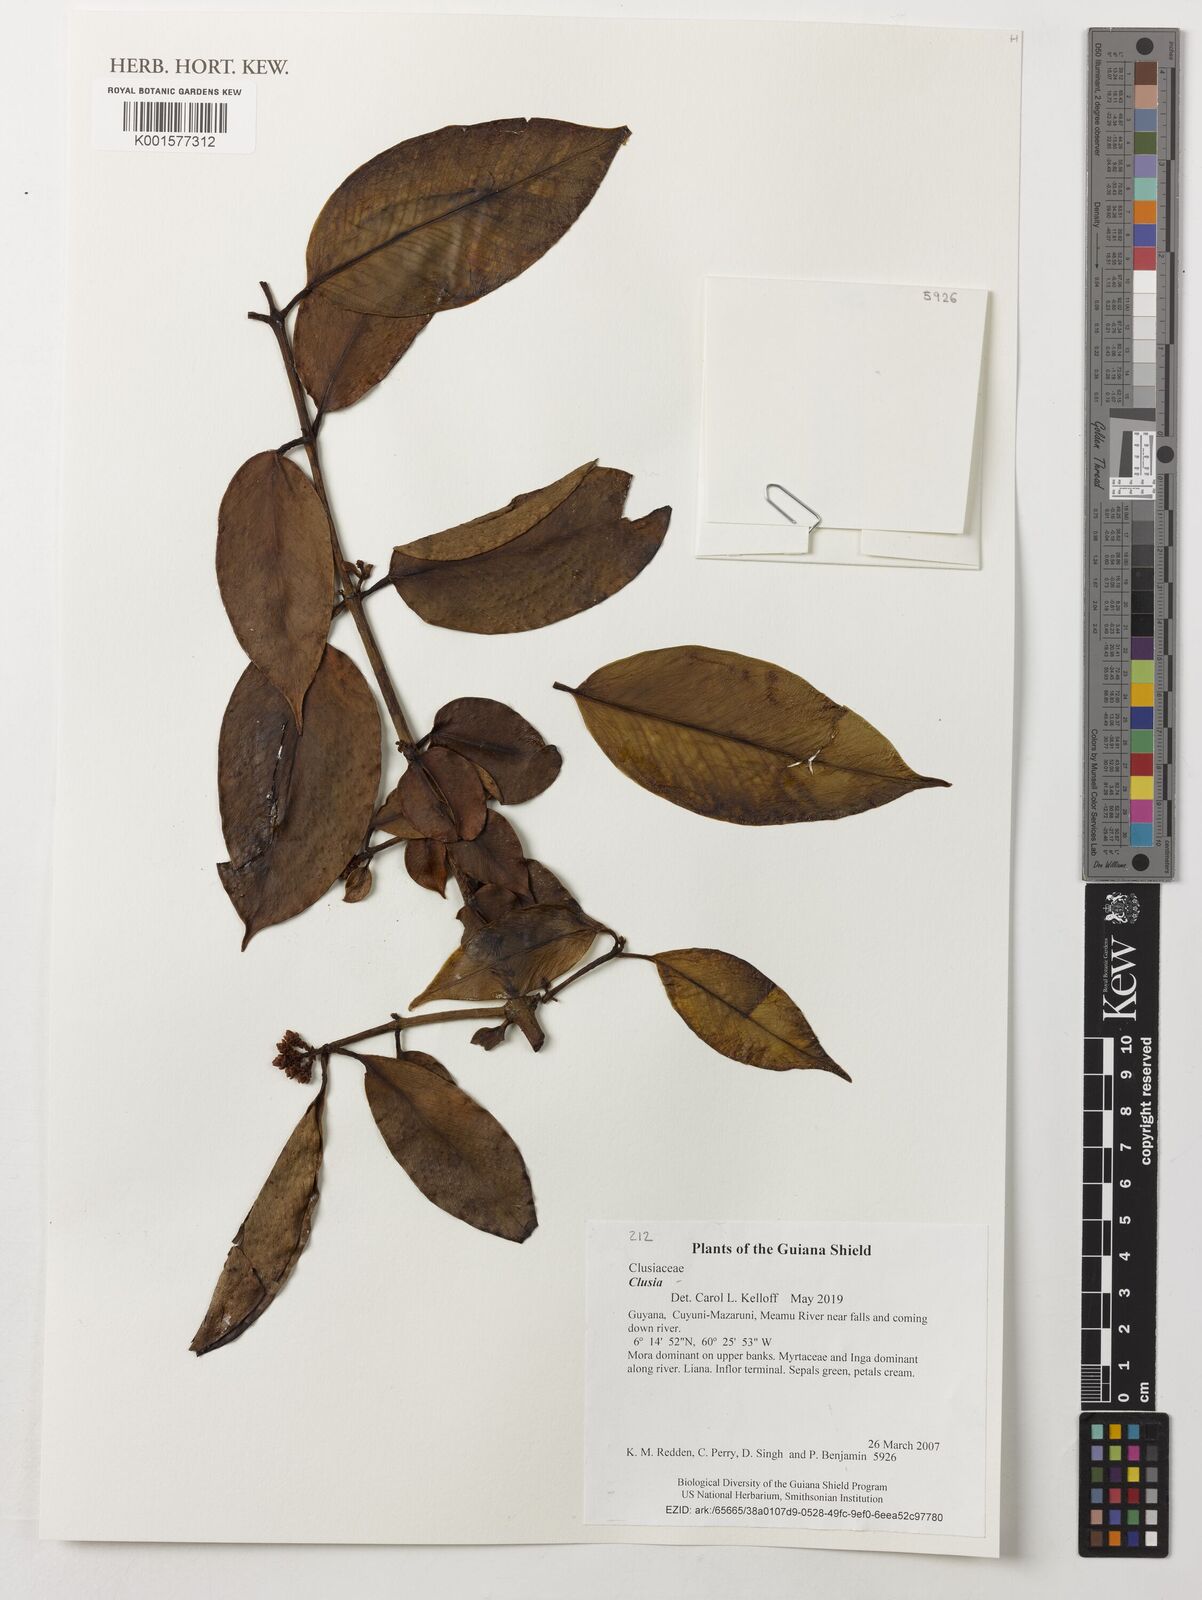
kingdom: Plantae
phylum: Tracheophyta
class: Magnoliopsida
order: Malpighiales
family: Clusiaceae
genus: Clusia
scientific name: Clusia
